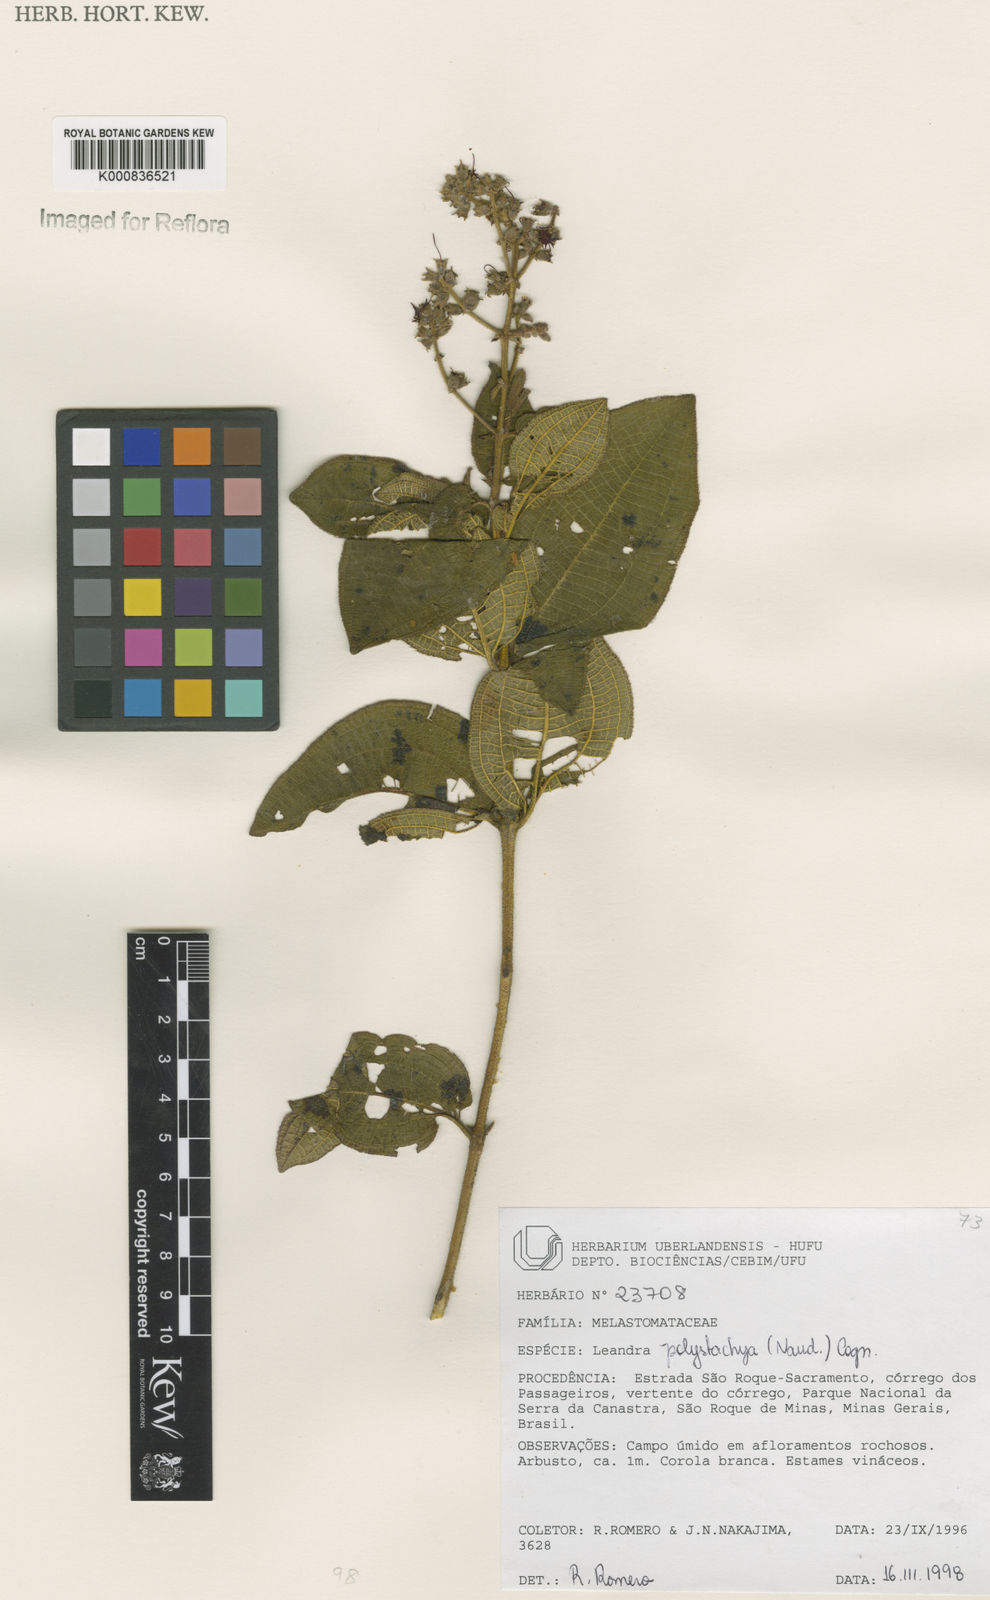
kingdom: Plantae
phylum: Tracheophyta
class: Magnoliopsida
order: Myrtales
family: Melastomataceae
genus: Miconia
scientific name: Miconia polystachya
